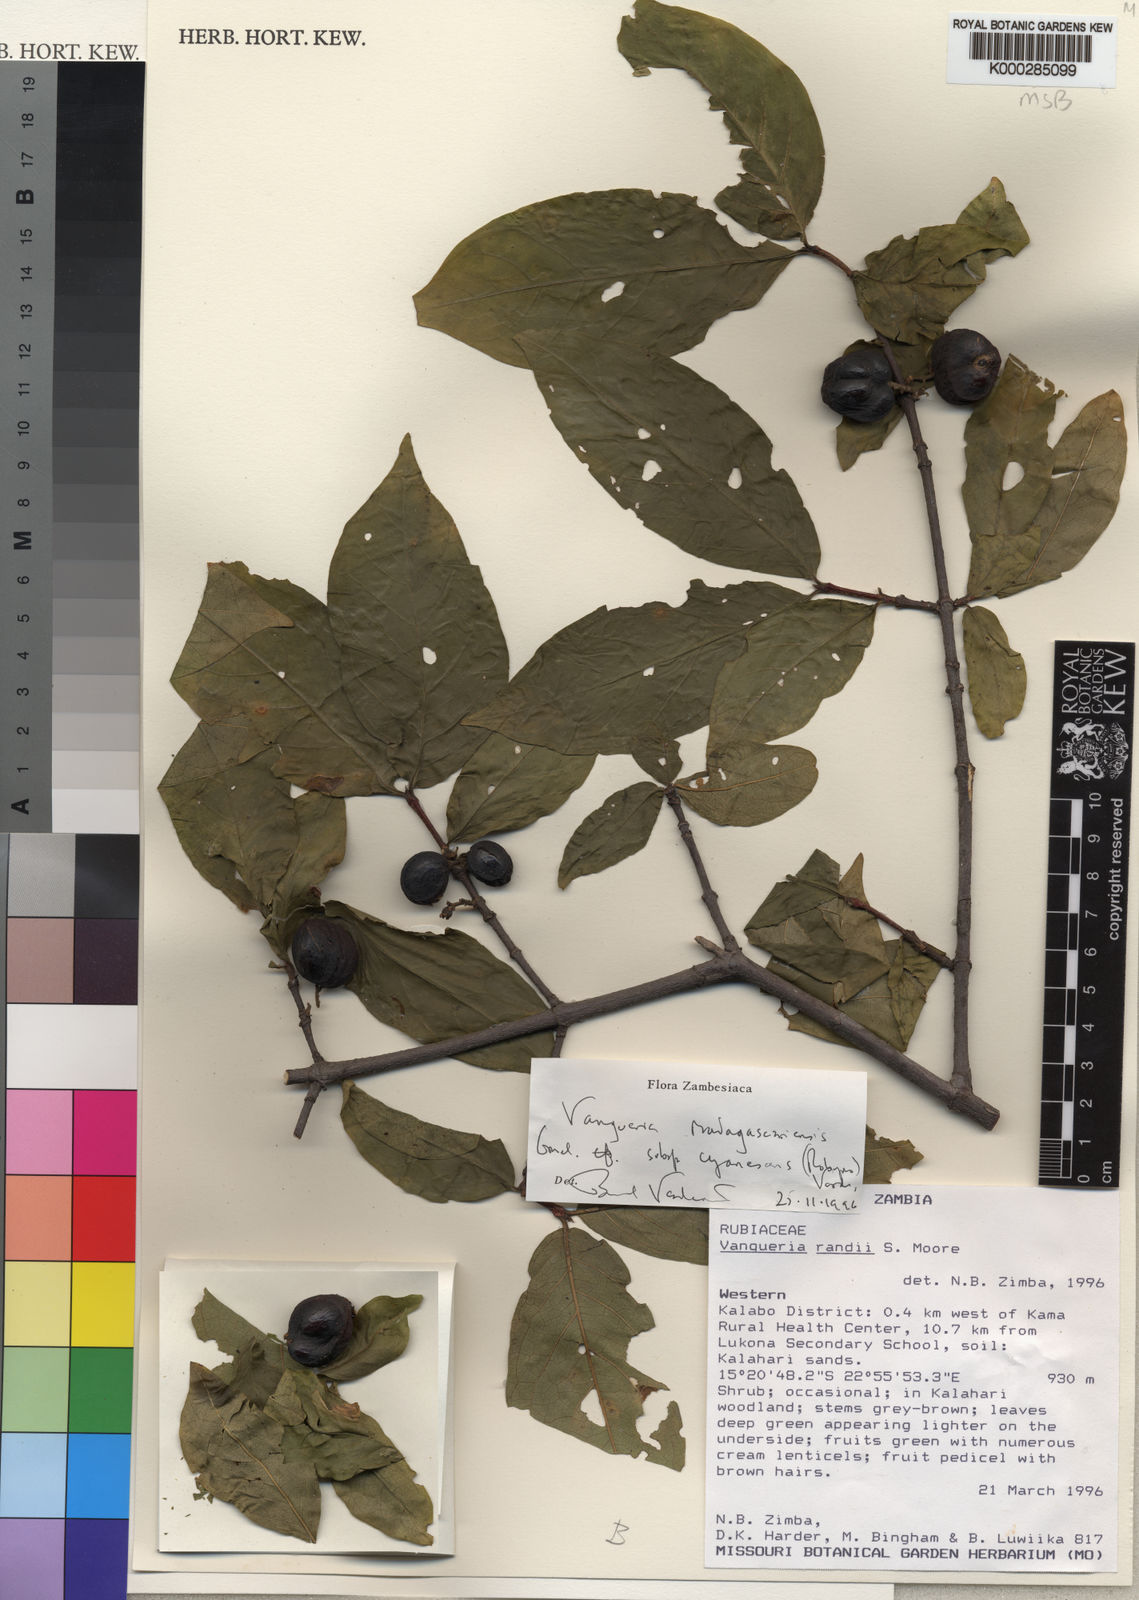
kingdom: Plantae
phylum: Tracheophyta
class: Magnoliopsida
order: Gentianales
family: Rubiaceae
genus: Vangueria
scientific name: Vangueria cyanescens
